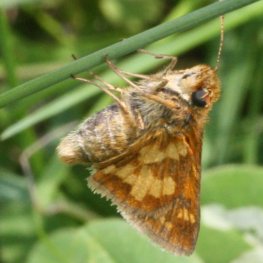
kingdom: Animalia
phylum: Arthropoda
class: Insecta
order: Lepidoptera
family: Hesperiidae
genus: Polites
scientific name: Polites coras
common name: Peck's Skipper
